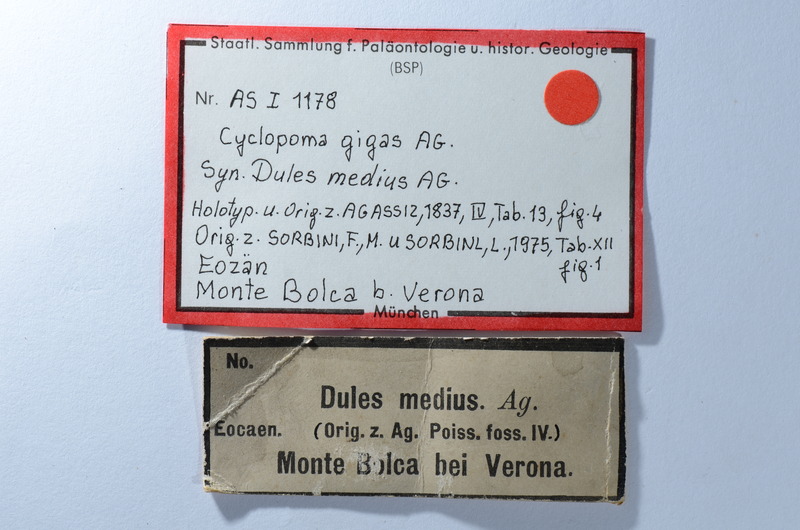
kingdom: Animalia
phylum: Chordata
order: Perciformes
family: Centropomidae
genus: Cyclopoma
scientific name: Cyclopoma gigas
